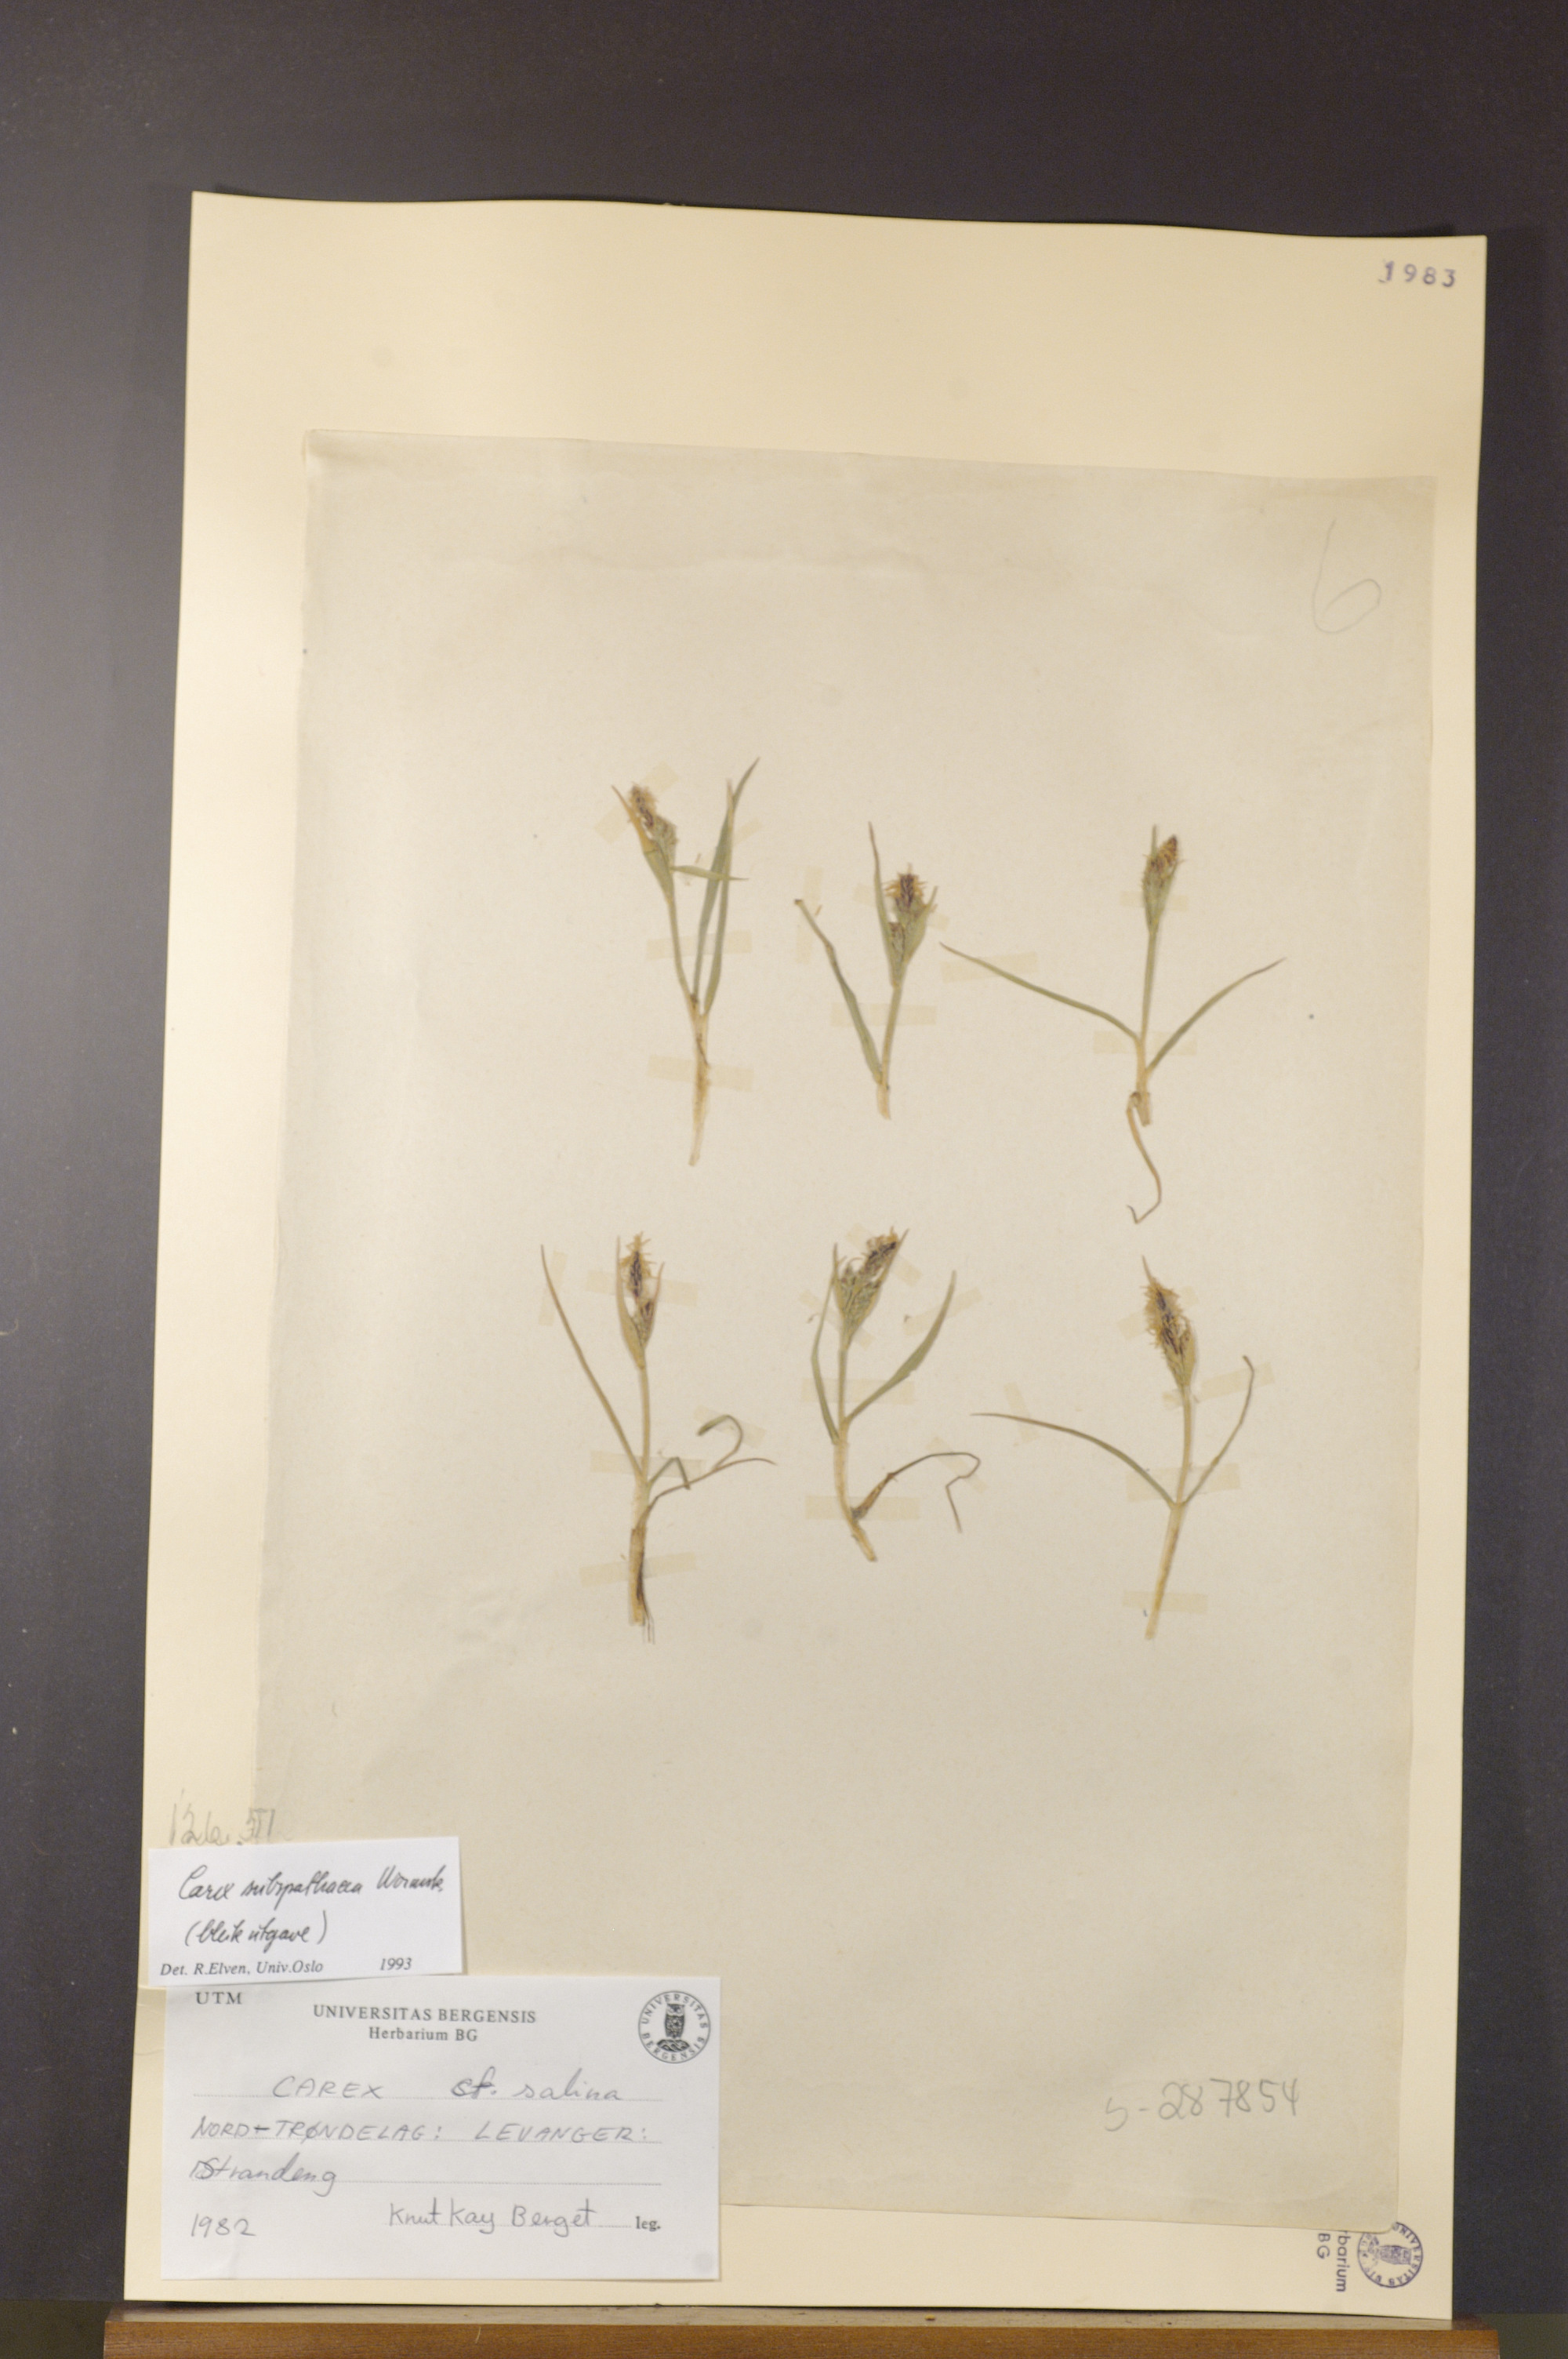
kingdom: Plantae
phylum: Tracheophyta
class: Liliopsida
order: Poales
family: Cyperaceae
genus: Carex
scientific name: Carex subspathacea
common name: Hoppner's sedge
